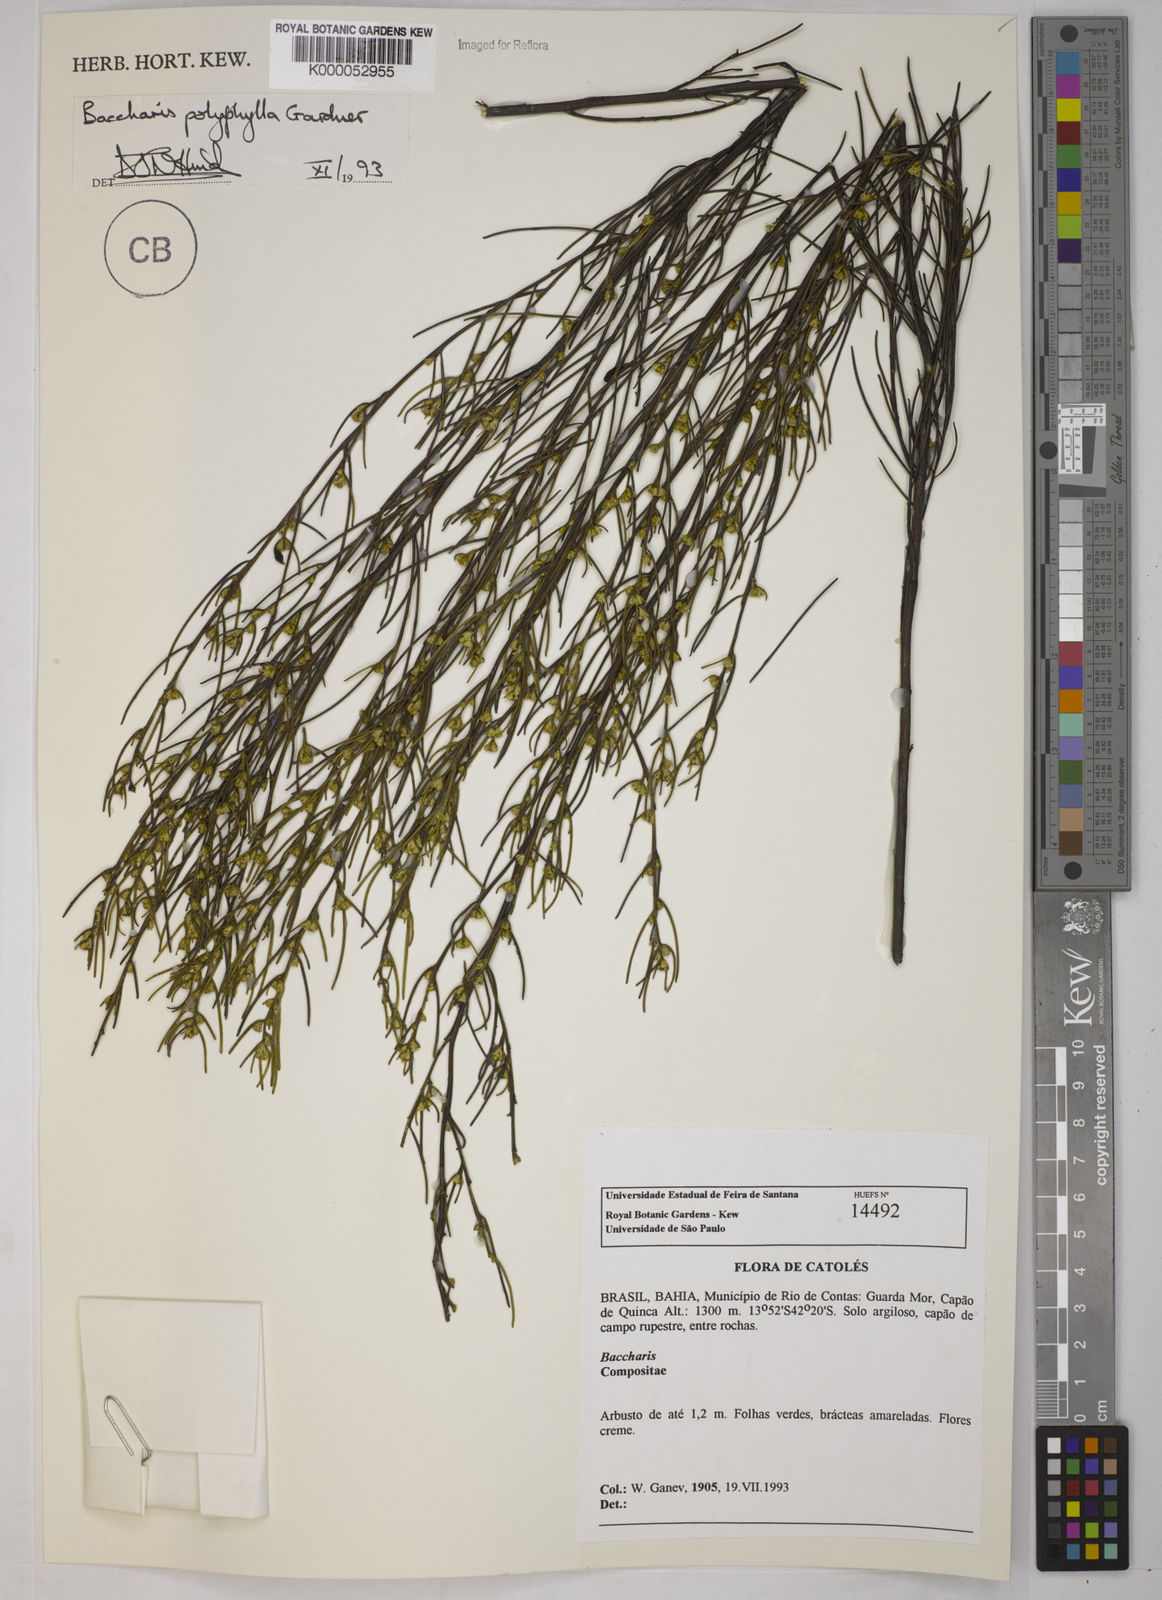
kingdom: Plantae
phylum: Tracheophyta
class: Magnoliopsida
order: Asterales
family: Asteraceae
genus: Baccharis
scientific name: Baccharis polyphylla
